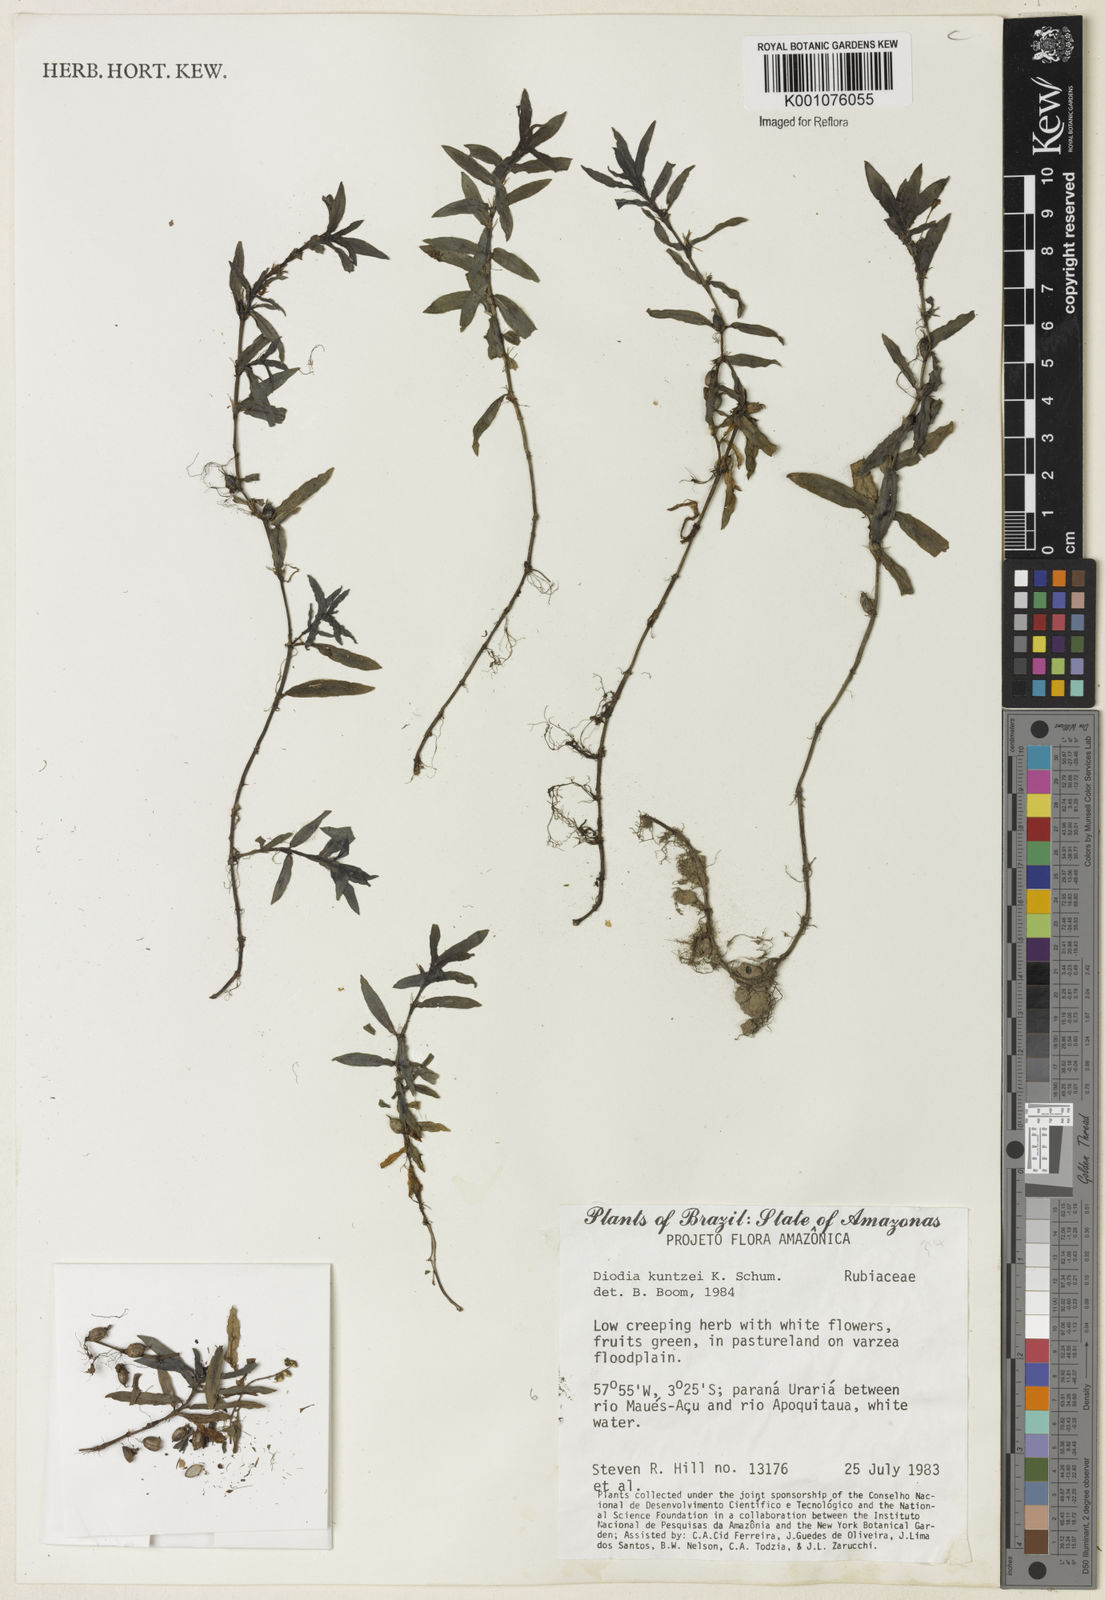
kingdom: Plantae
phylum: Tracheophyta
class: Magnoliopsida
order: Gentianales
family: Rubiaceae
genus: Diodia
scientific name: Diodia kuntzei
